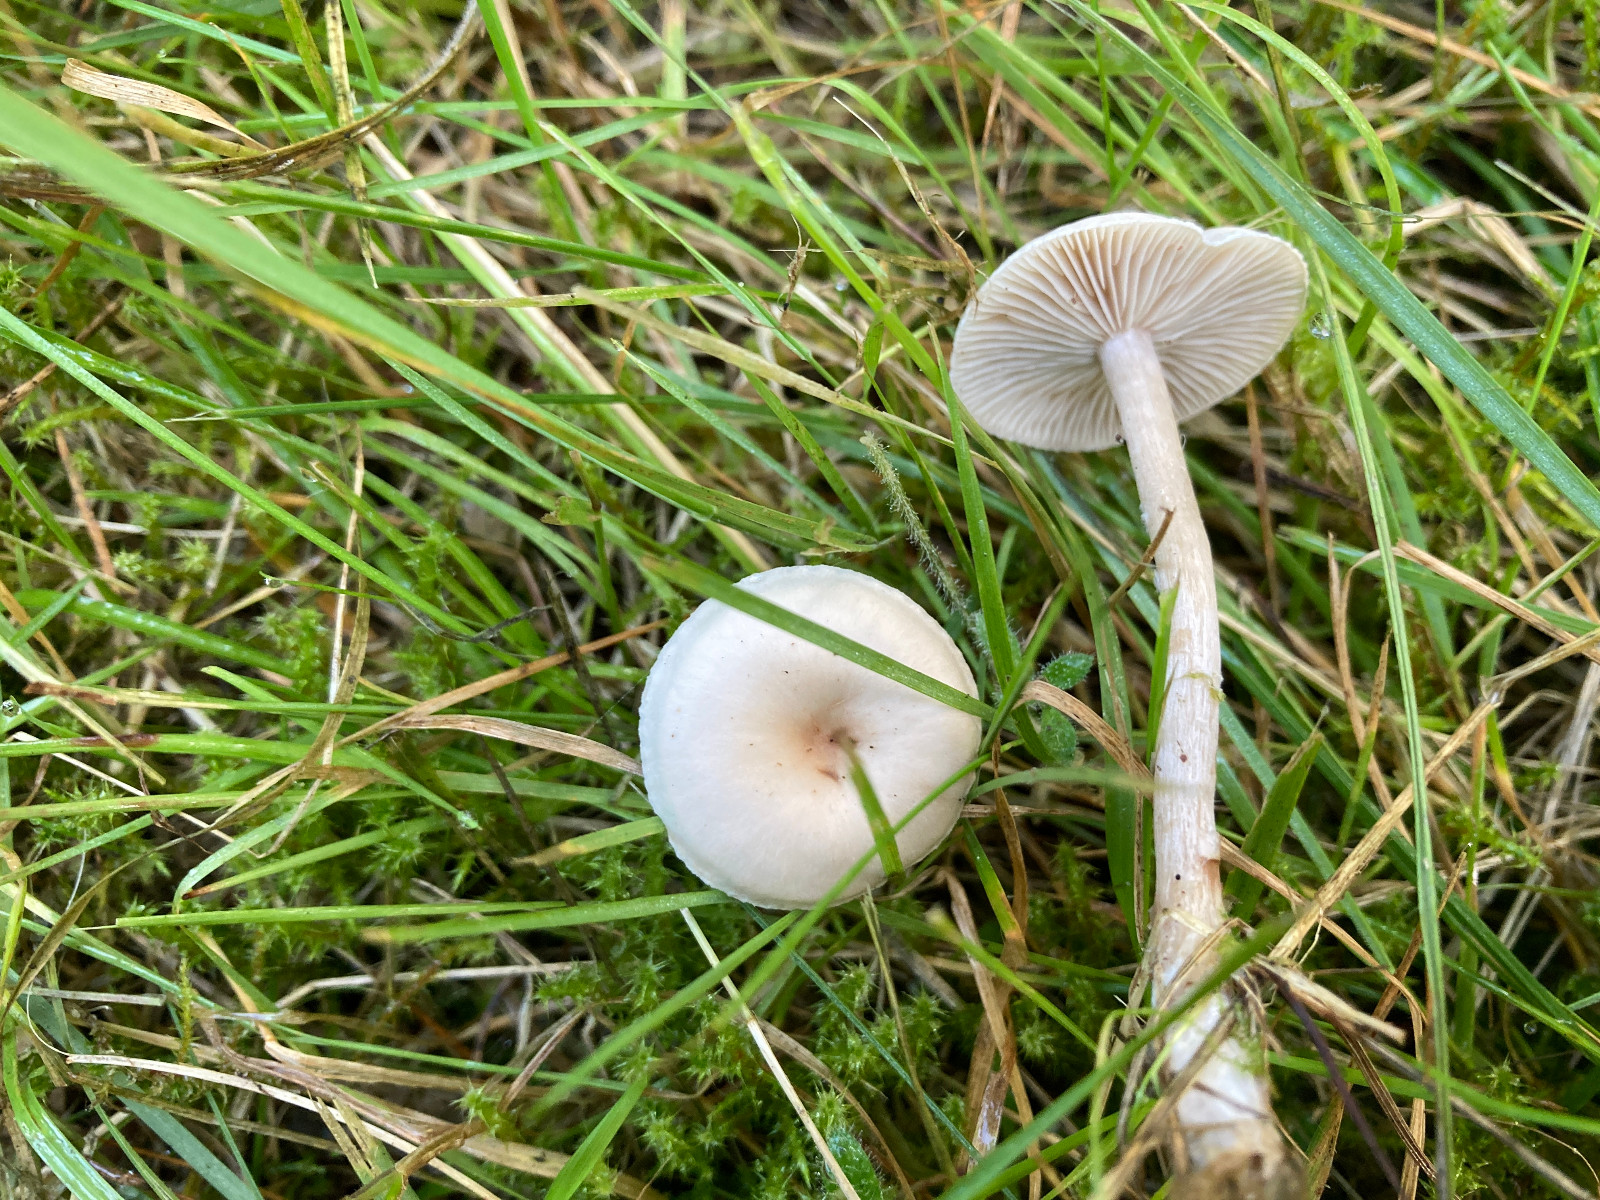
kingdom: Fungi
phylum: Basidiomycota
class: Agaricomycetes
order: Agaricales
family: Tricholomataceae
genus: Clitocybe
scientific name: Clitocybe fragrans
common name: vellugtende tragthat
